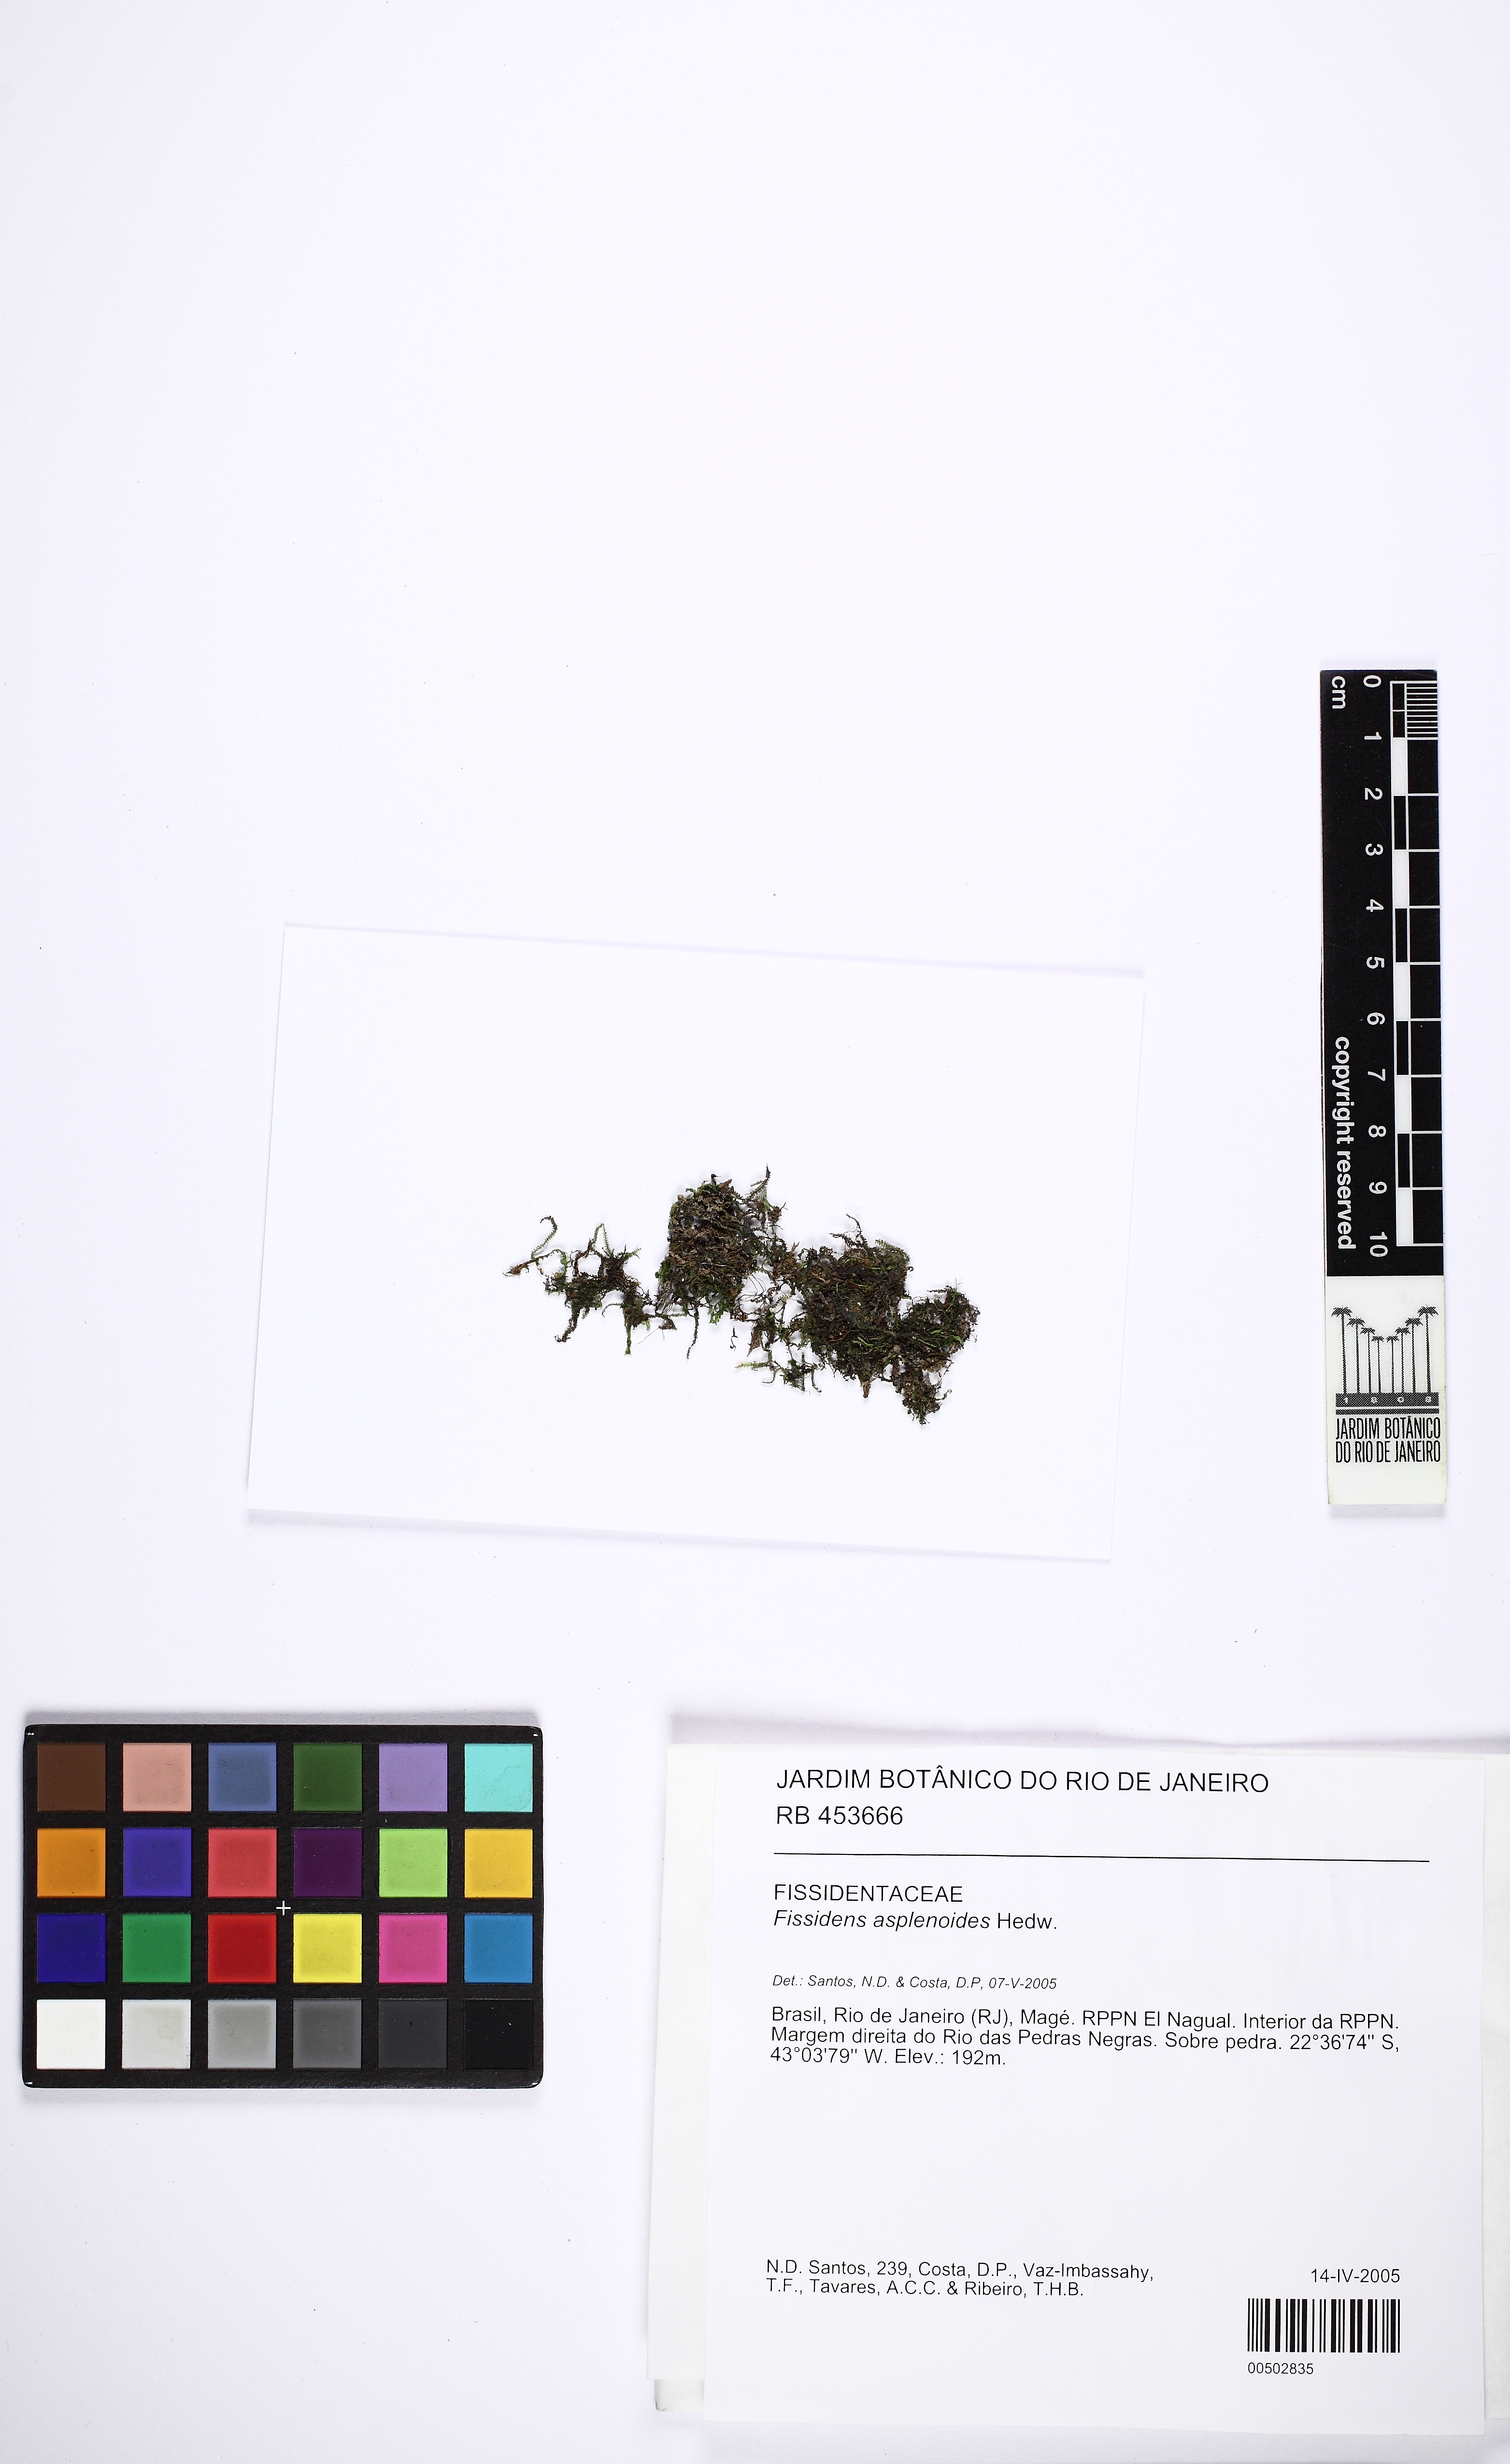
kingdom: Plantae
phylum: Bryophyta
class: Bryopsida
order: Dicranales
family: Fissidentaceae
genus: Fissidens
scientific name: Fissidens asplenioides
